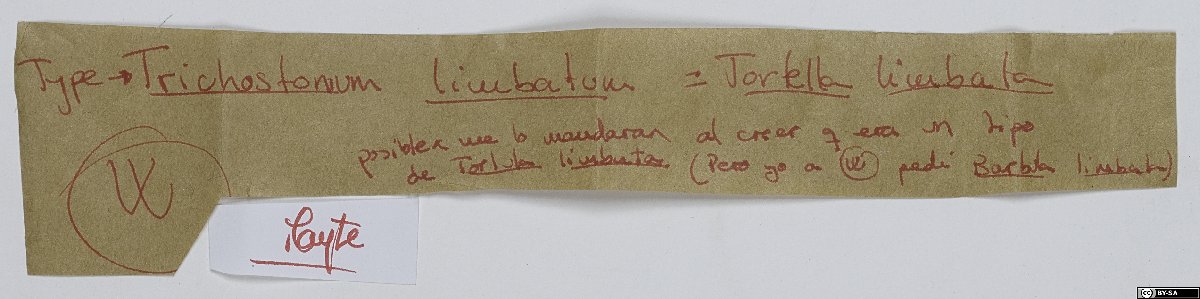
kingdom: Plantae
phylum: Bryophyta
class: Bryopsida
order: Pottiales
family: Pottiaceae
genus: Tortella
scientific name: Tortella limbata
